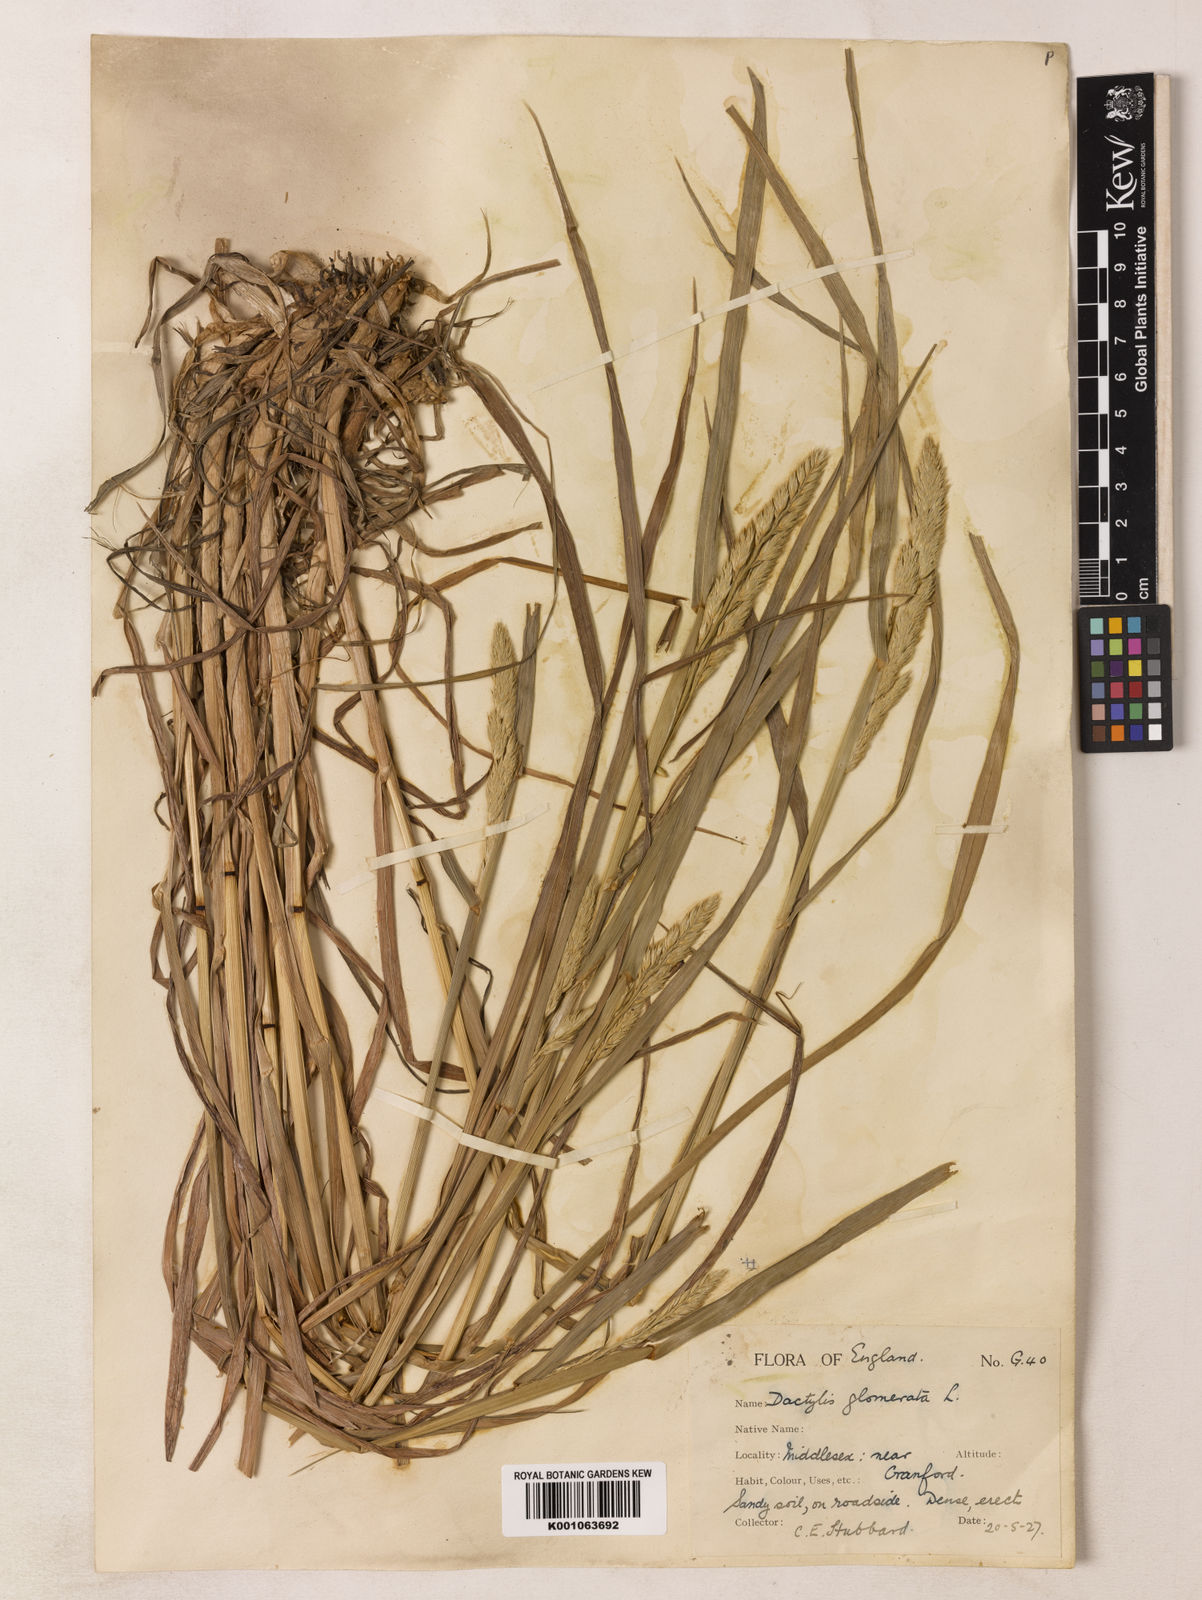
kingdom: Plantae
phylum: Tracheophyta
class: Liliopsida
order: Poales
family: Poaceae
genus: Dactylis
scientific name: Dactylis glomerata
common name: Orchardgrass
